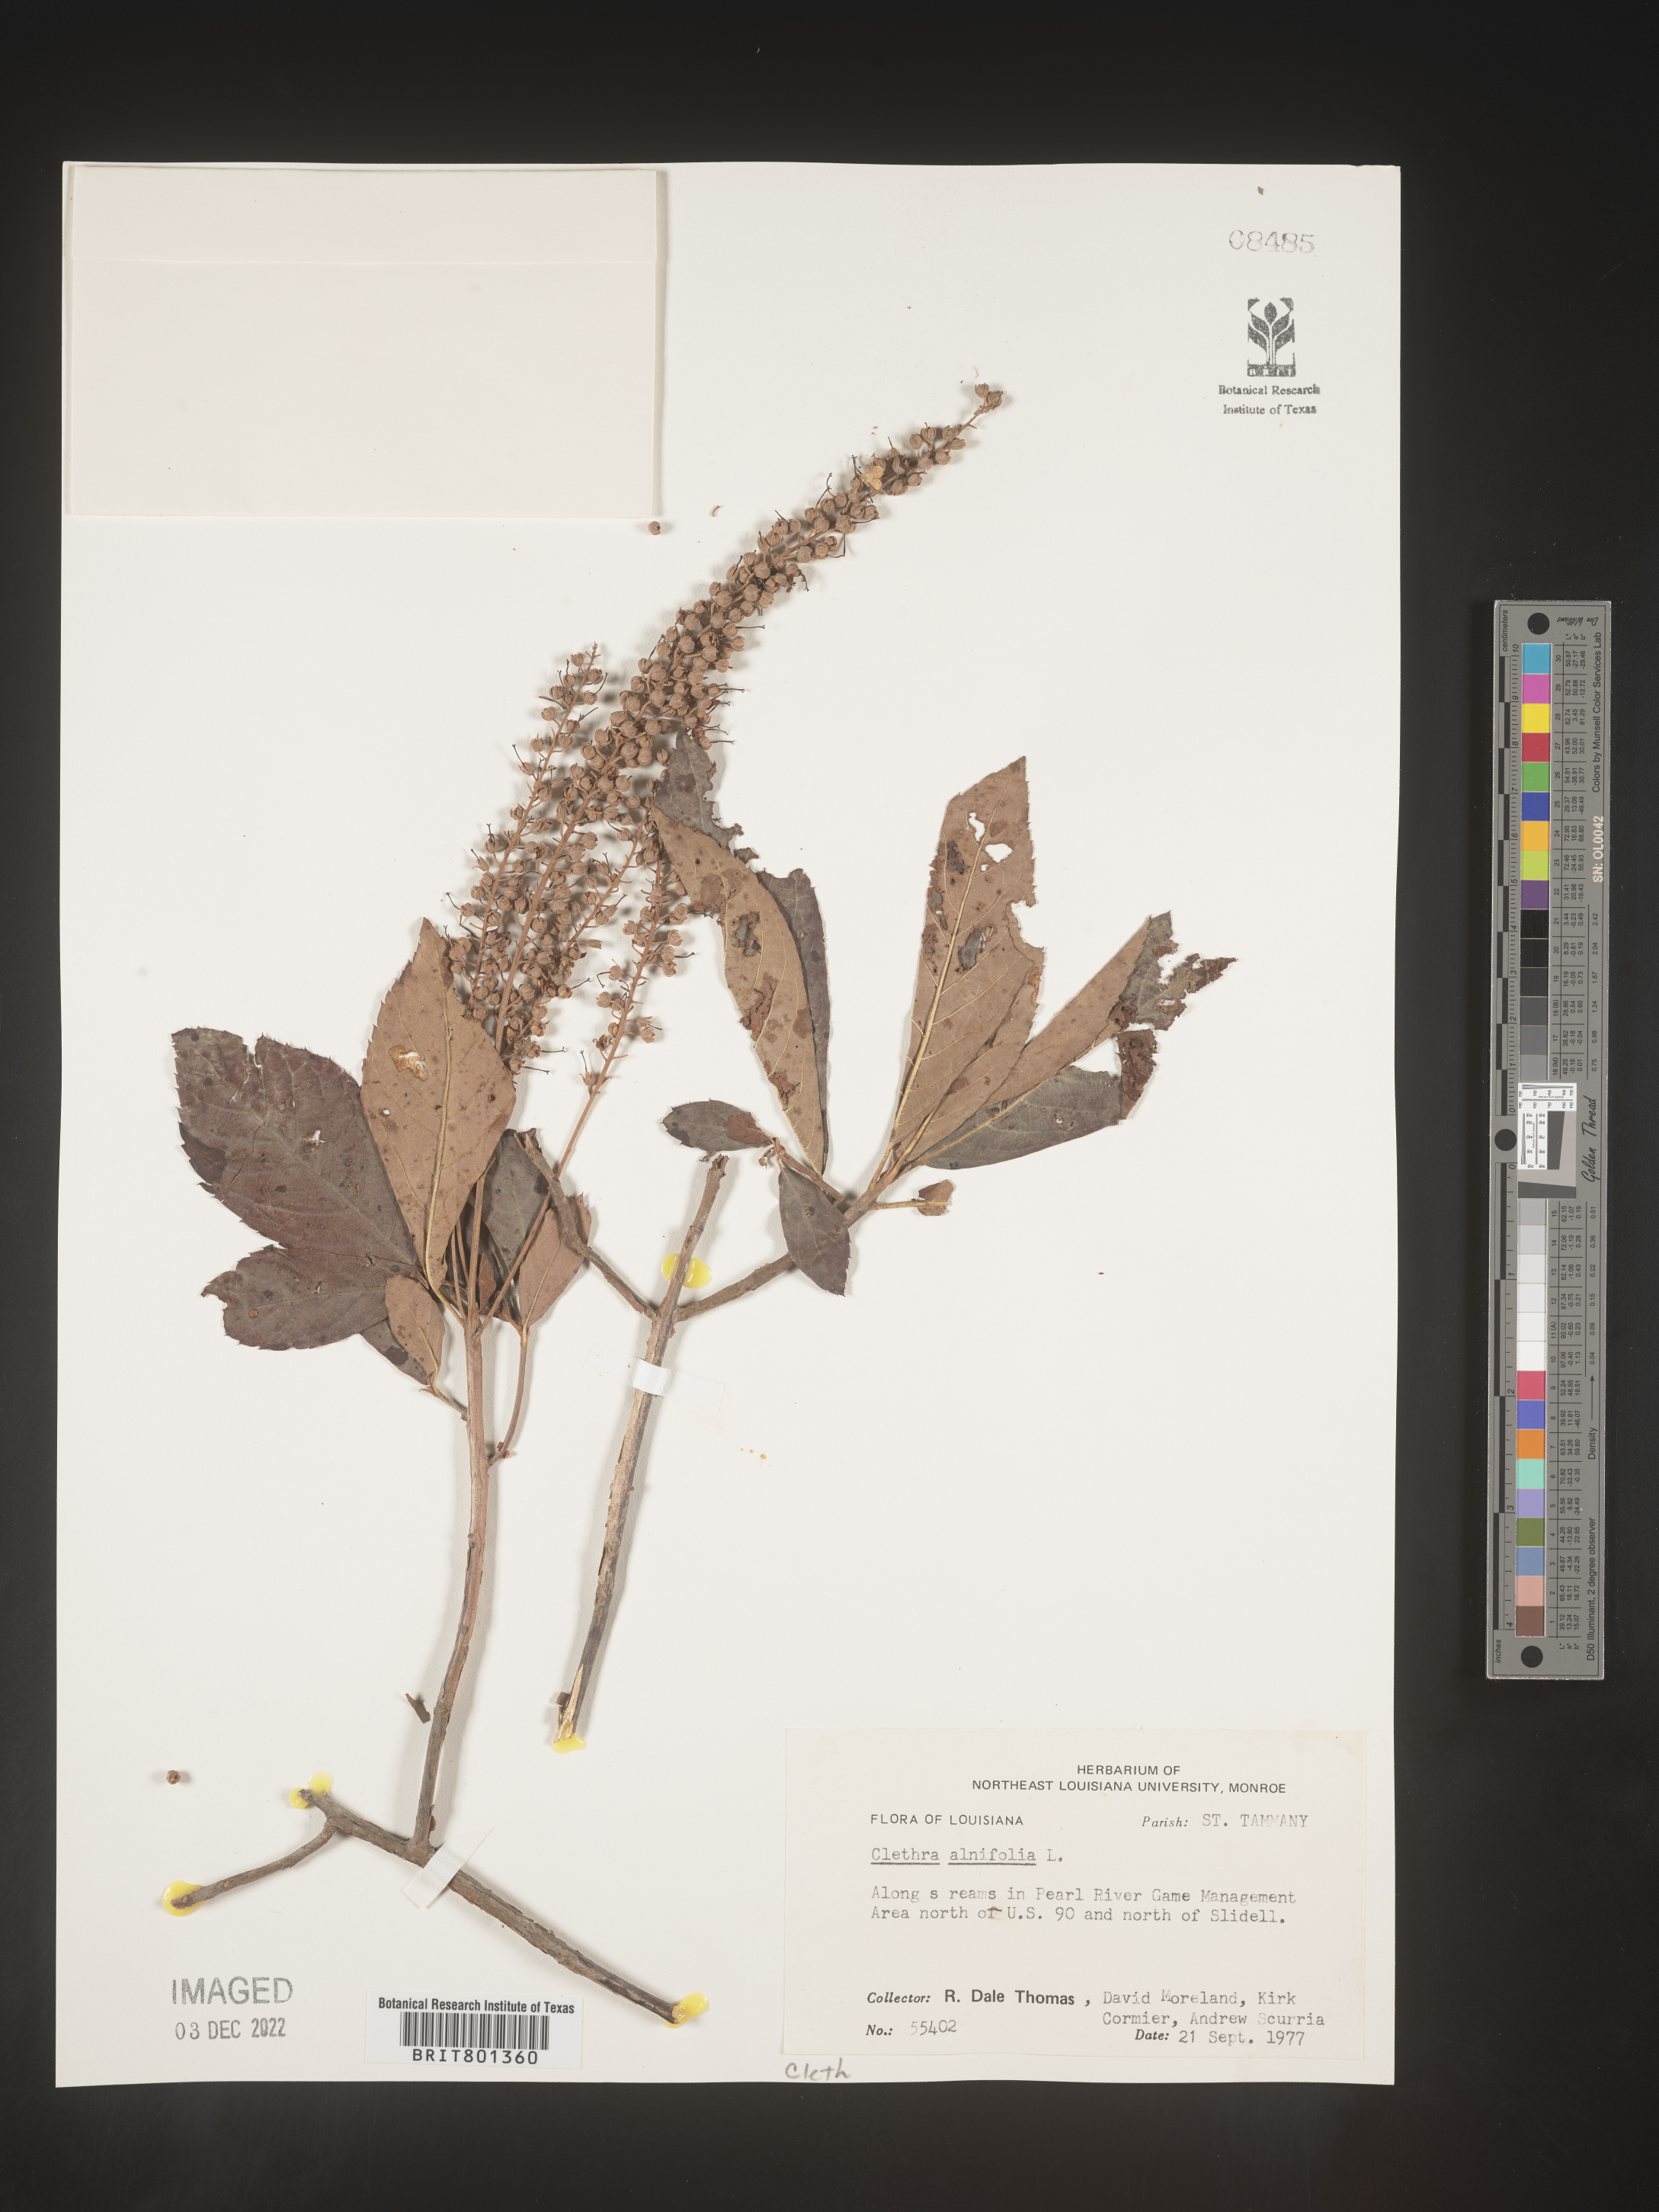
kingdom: Plantae
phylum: Tracheophyta
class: Magnoliopsida
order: Ericales
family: Clethraceae
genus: Clethra
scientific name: Clethra alnifolia
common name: Sweet pepperbush
